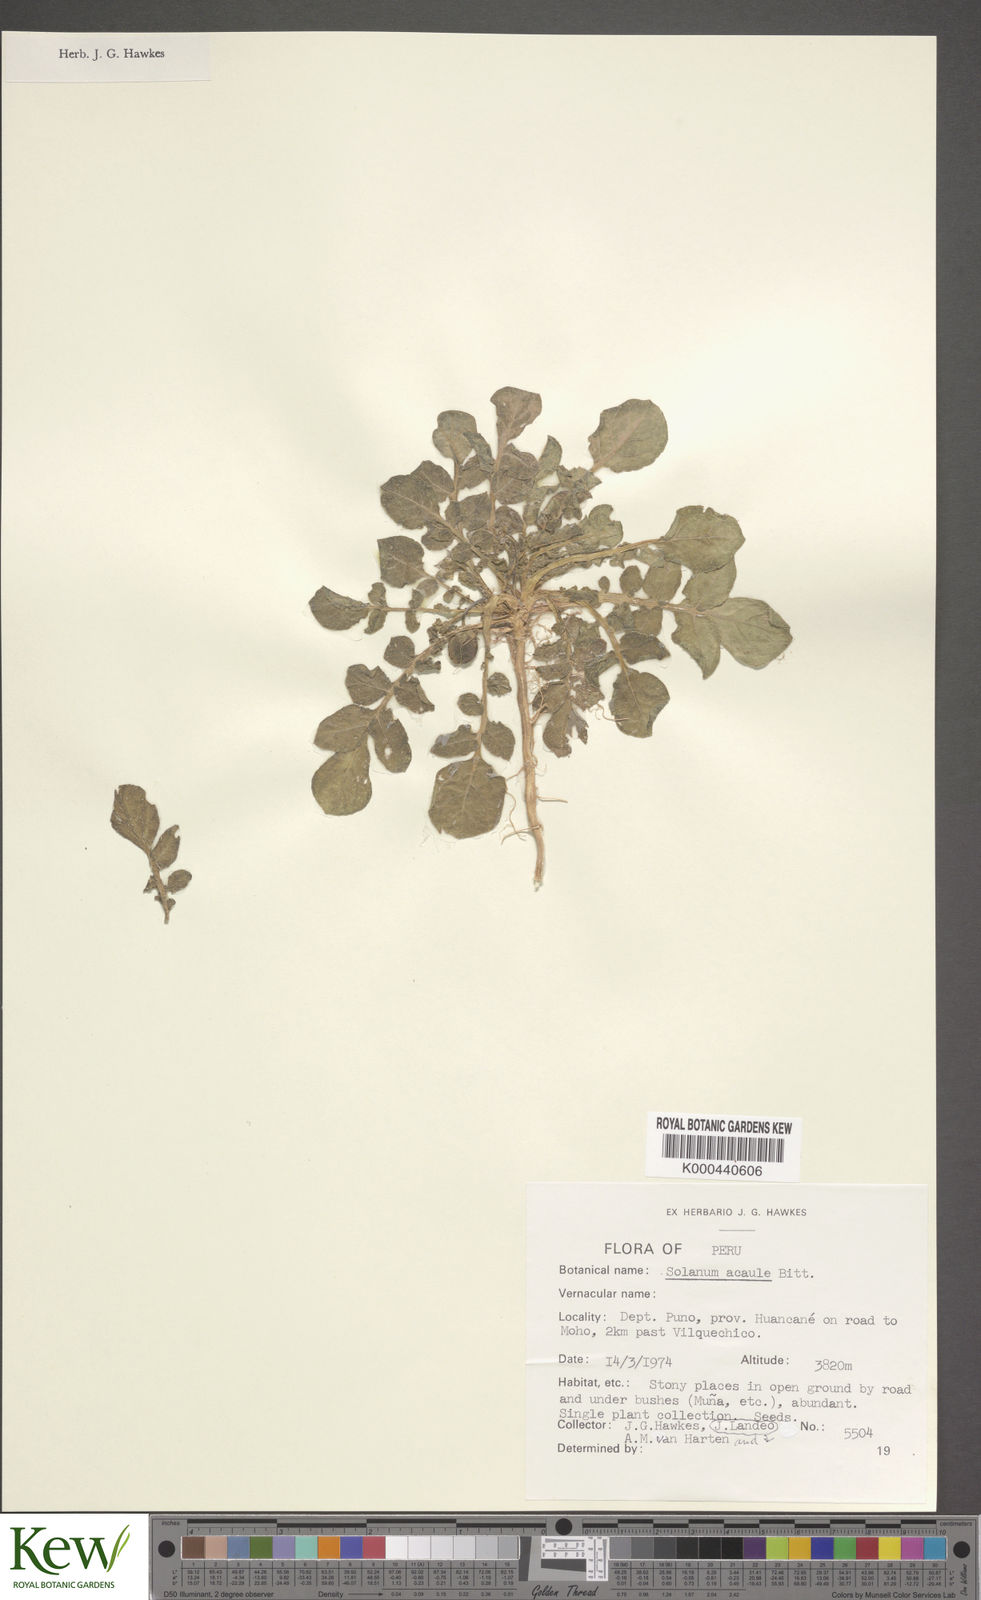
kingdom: Plantae
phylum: Tracheophyta
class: Magnoliopsida
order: Solanales
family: Solanaceae
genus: Solanum
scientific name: Solanum acaule
